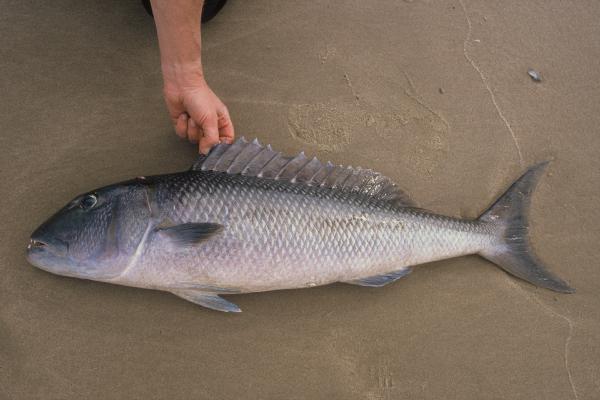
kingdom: Animalia
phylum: Chordata
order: Perciformes
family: Lutjanidae
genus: Aprion
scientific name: Aprion virescens
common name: Green jobfish
